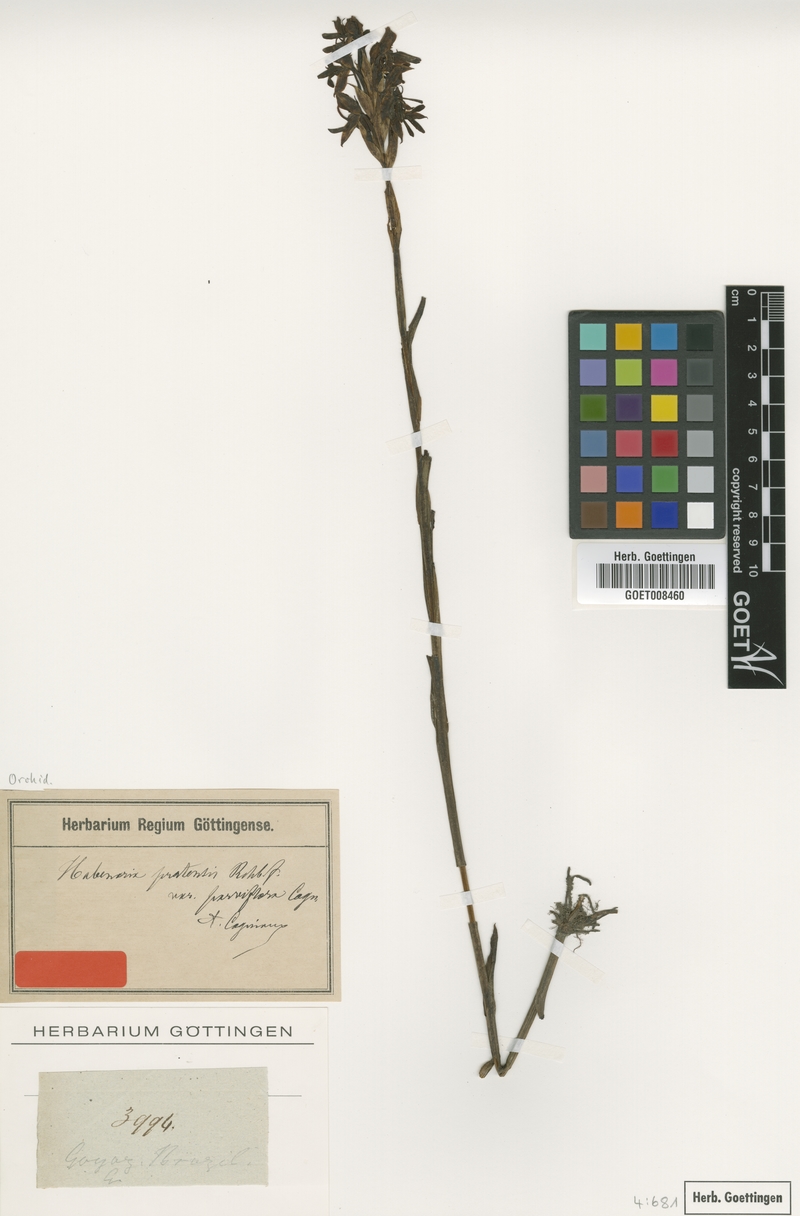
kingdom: Plantae
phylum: Tracheophyta
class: Liliopsida
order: Asparagales
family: Orchidaceae
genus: Habenaria
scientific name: Habenaria spathulifera
